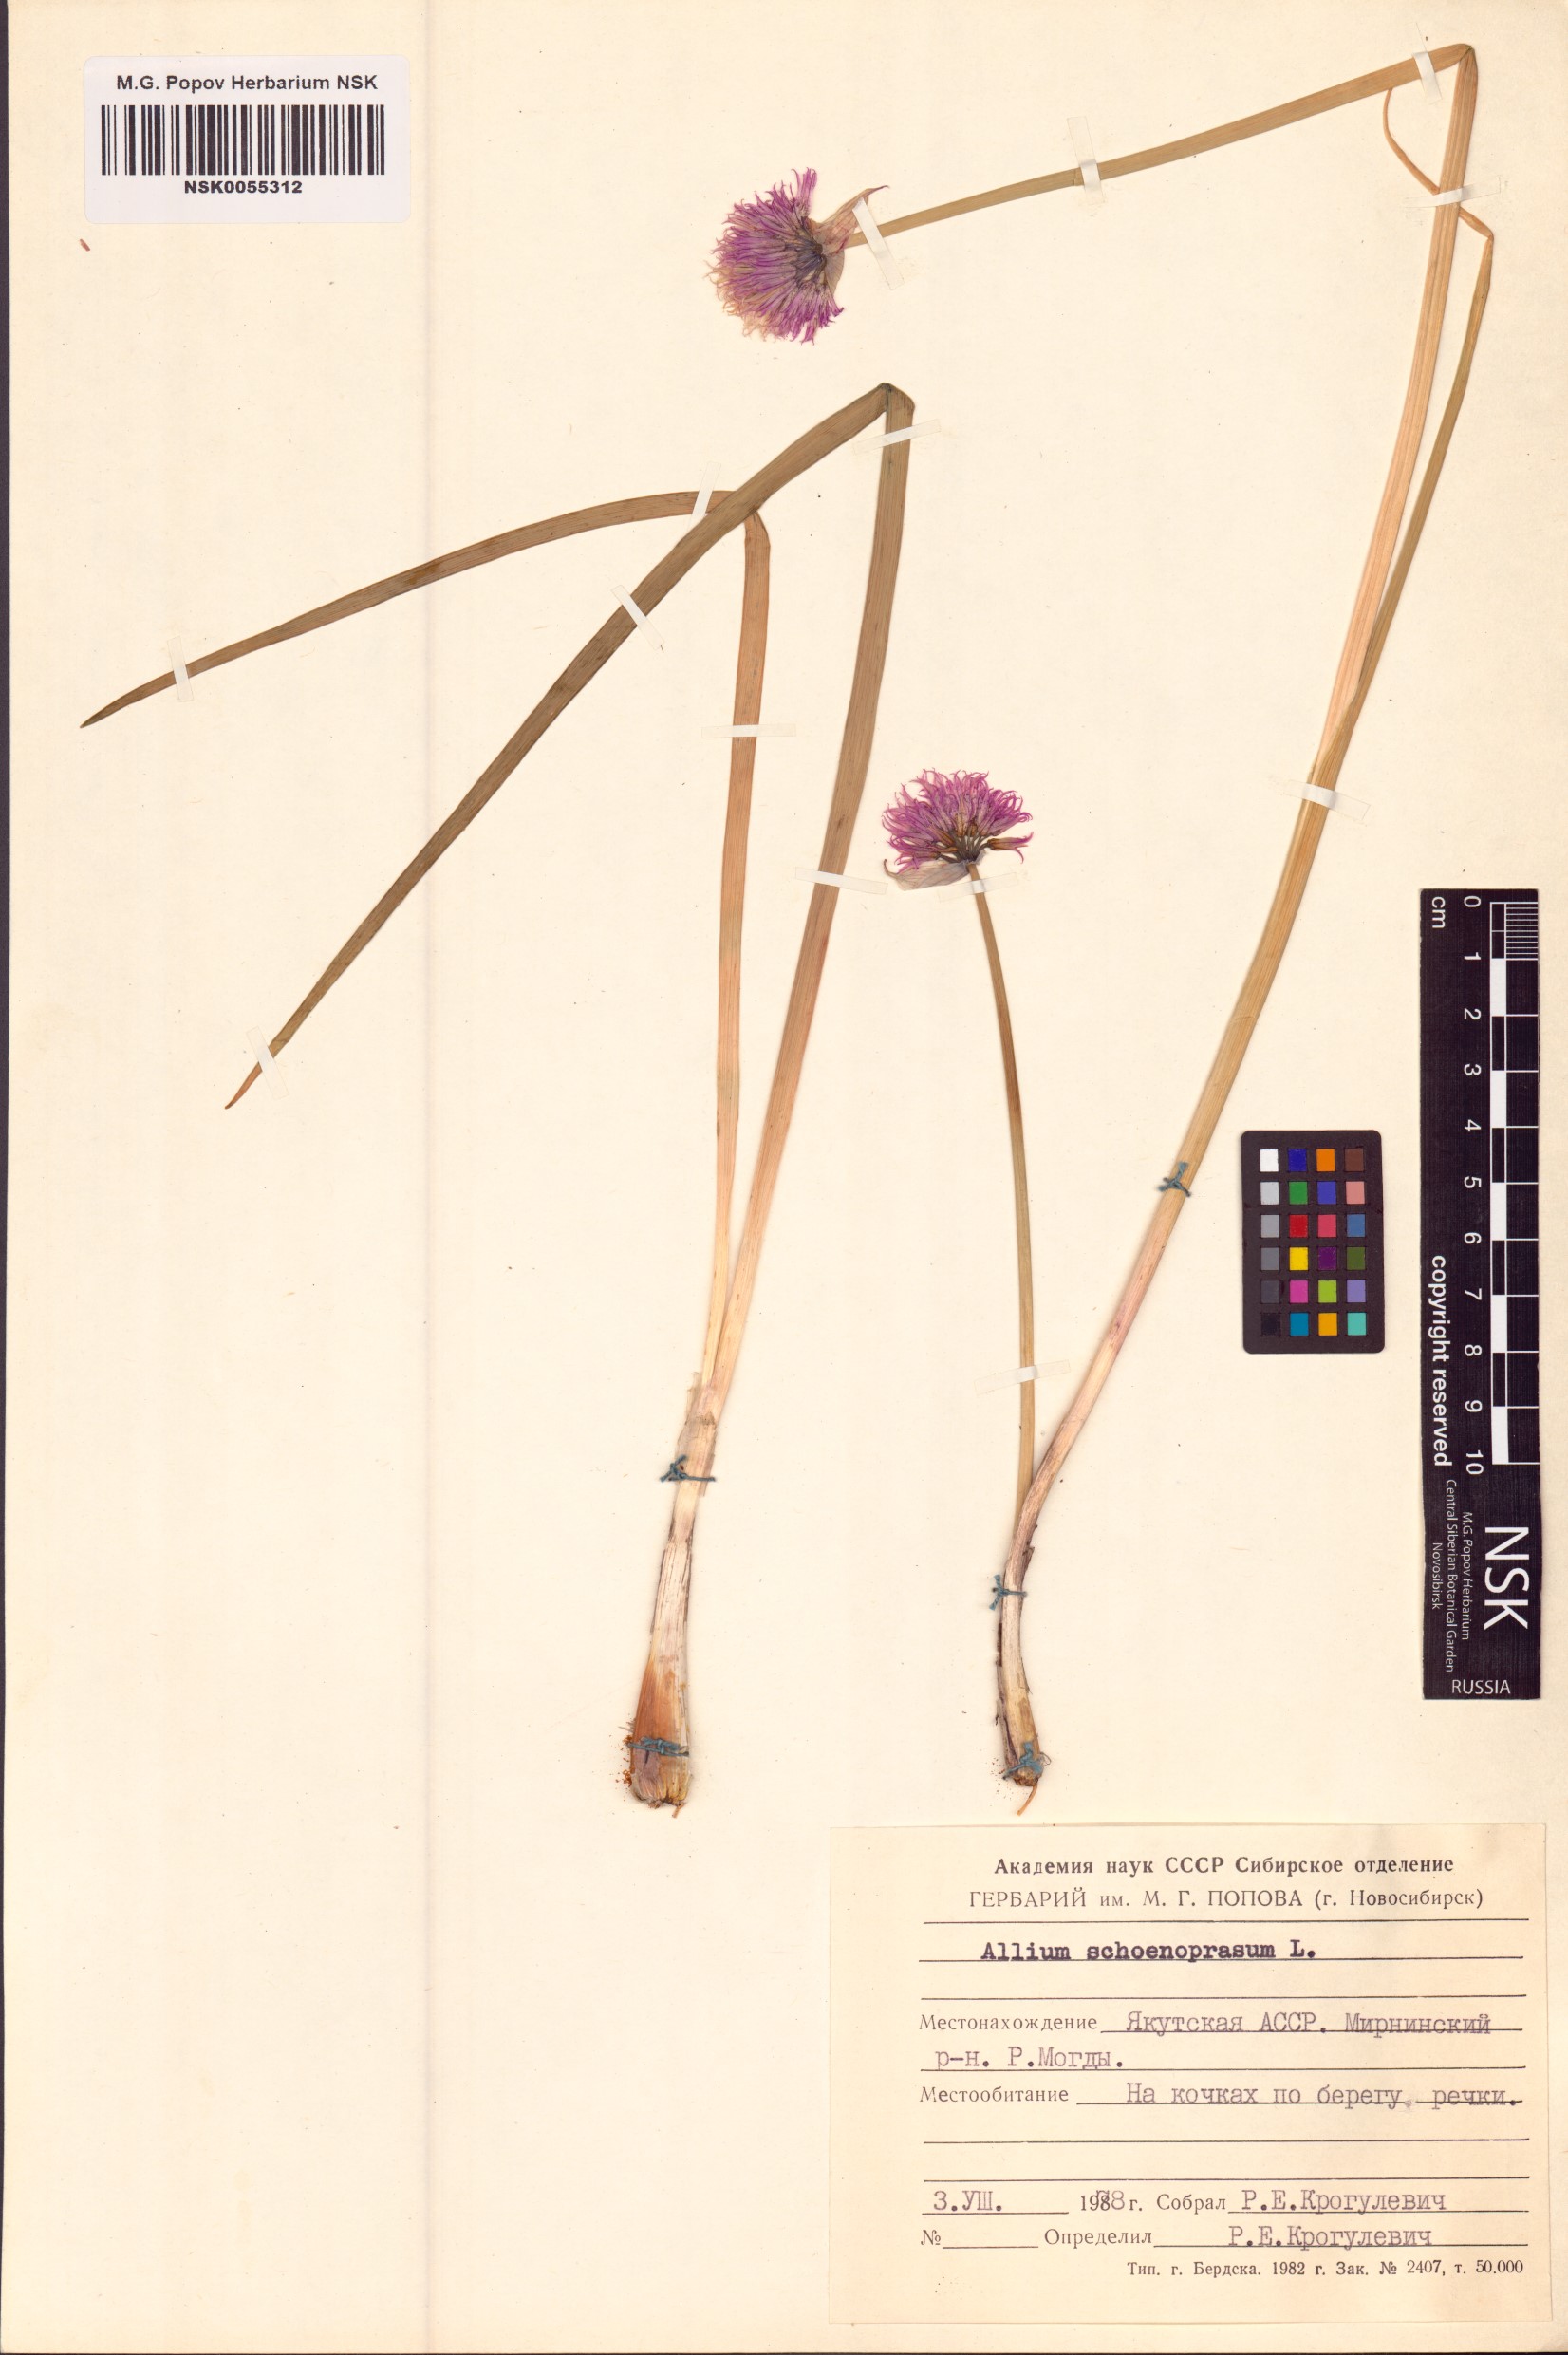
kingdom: Plantae
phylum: Tracheophyta
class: Liliopsida
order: Asparagales
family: Amaryllidaceae
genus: Allium
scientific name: Allium schoenoprasum
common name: Chives
